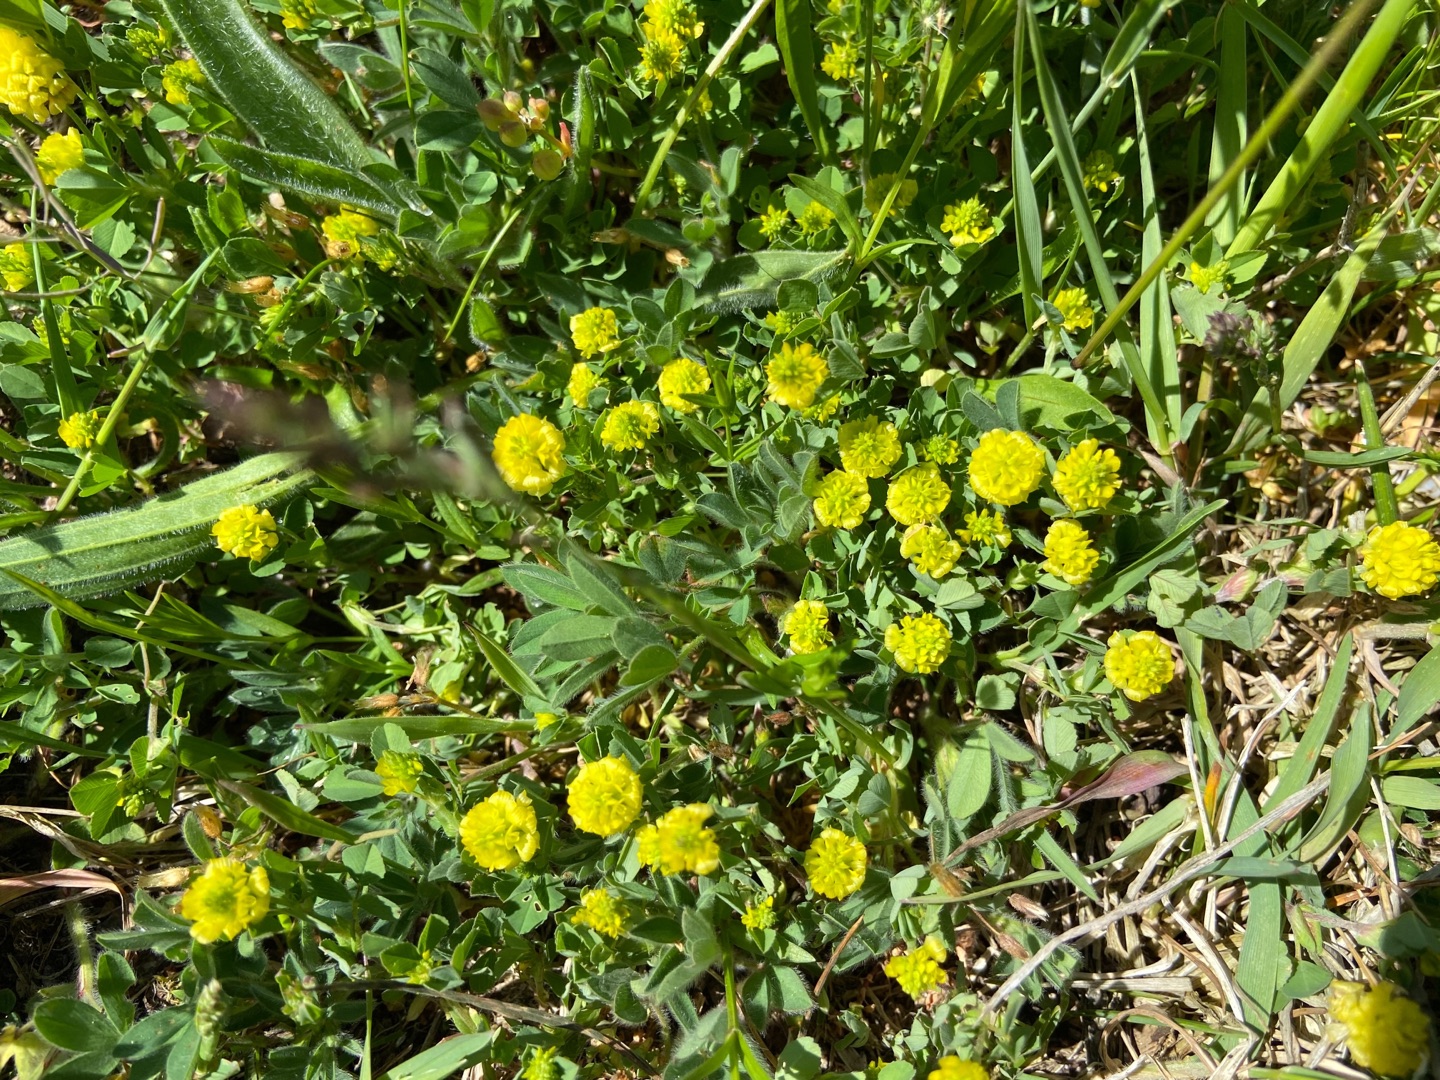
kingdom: Plantae
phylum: Tracheophyta
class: Magnoliopsida
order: Fabales
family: Fabaceae
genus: Trifolium
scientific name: Trifolium campestre
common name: Gul kløver
